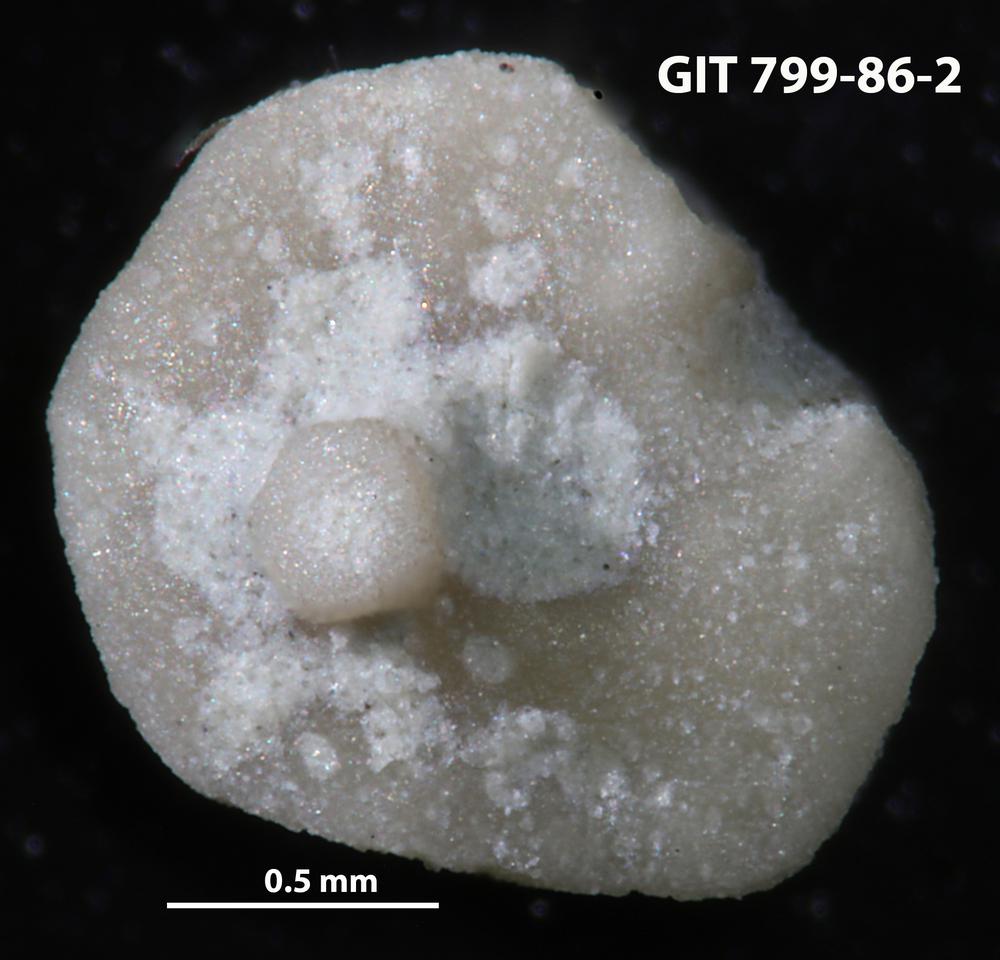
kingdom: Animalia
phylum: Echinodermata
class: Echinoidea
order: Bothriocidaroida
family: Bothriocidaridae
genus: Neobothriocidaris
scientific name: Neobothriocidaris
